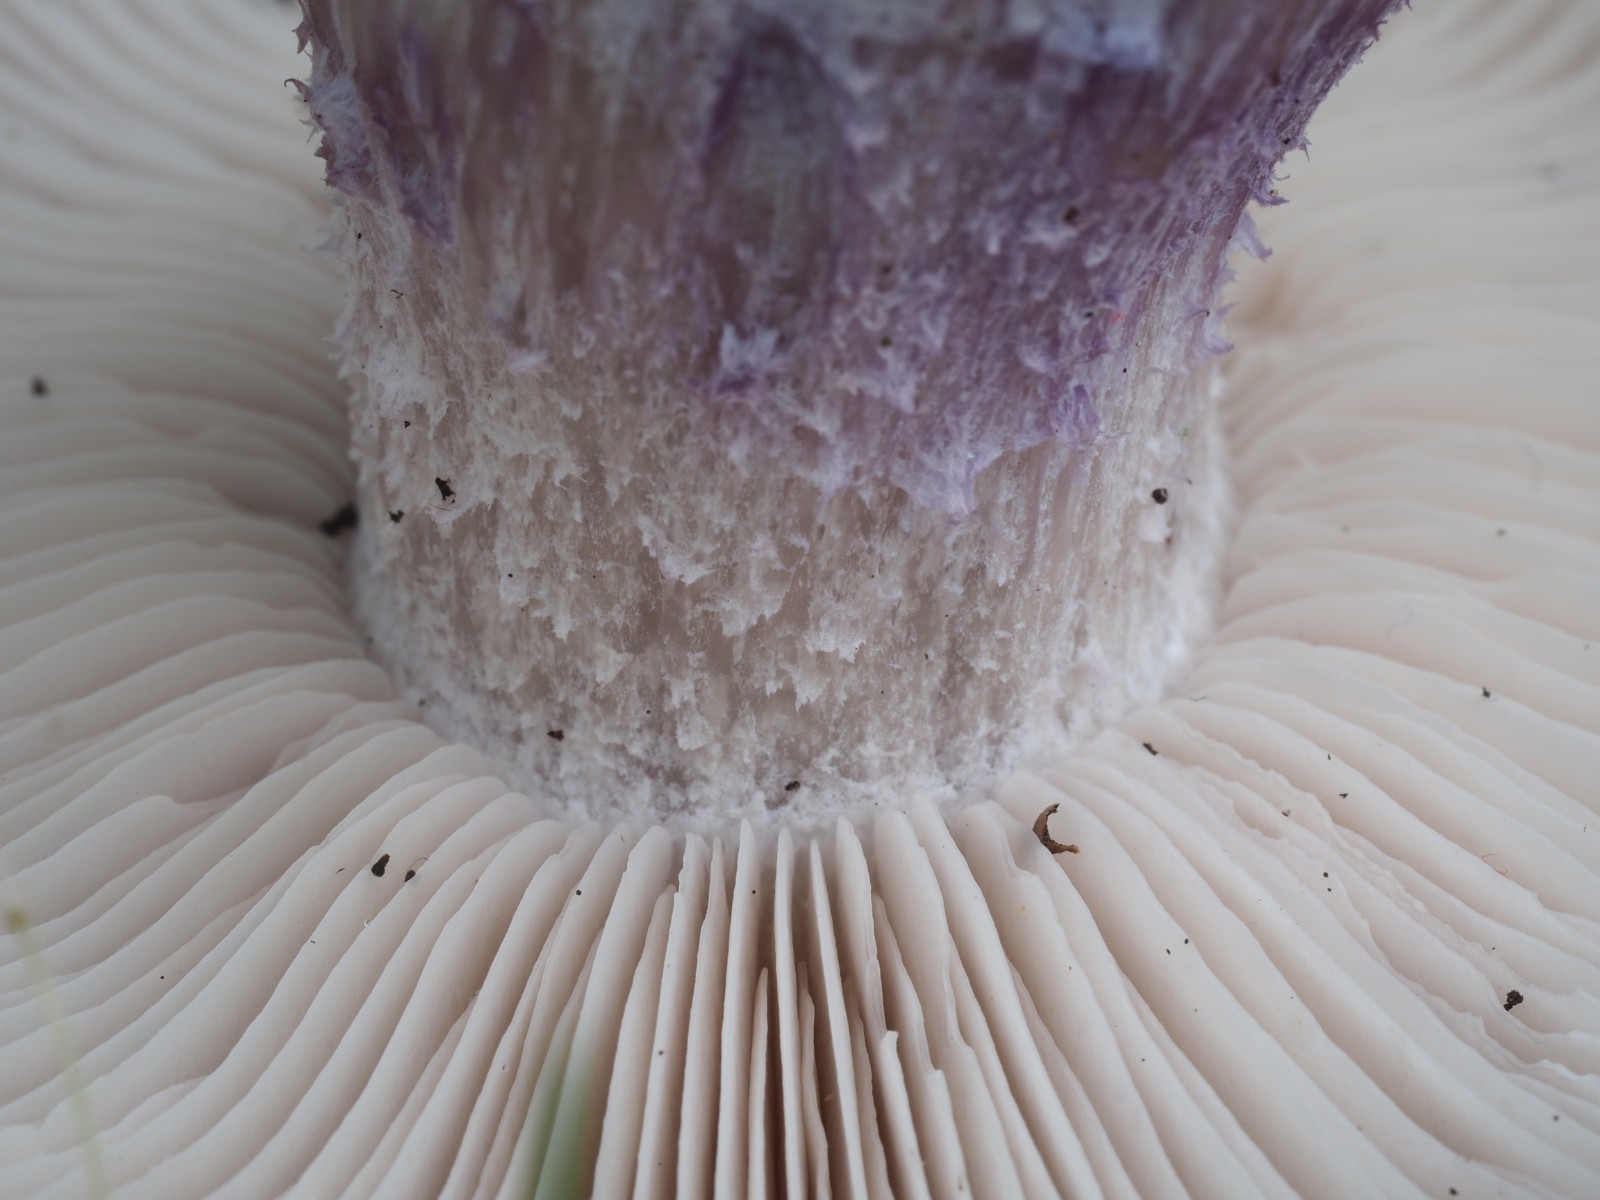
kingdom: Fungi
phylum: Basidiomycota
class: Agaricomycetes
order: Agaricales
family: Tricholomataceae
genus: Lepista
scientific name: Lepista personata
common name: bleg hekseringshat
